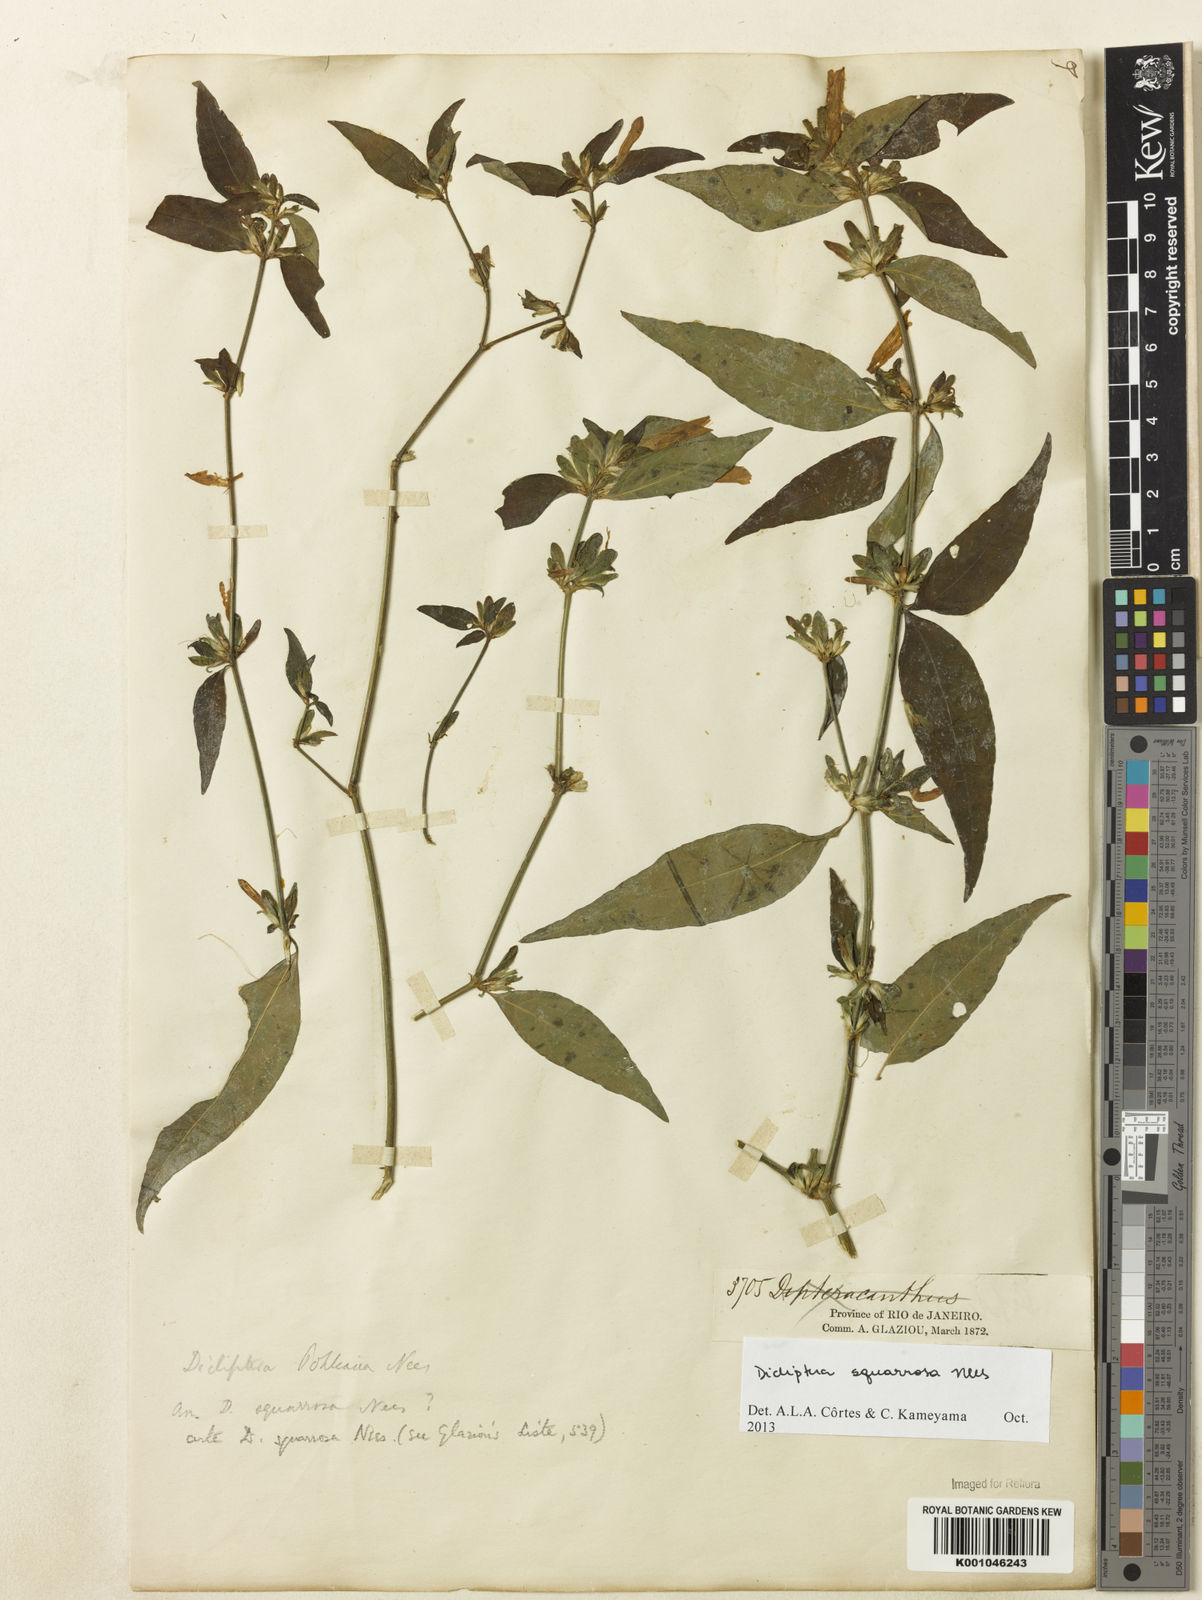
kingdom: Plantae
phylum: Tracheophyta
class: Magnoliopsida
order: Lamiales
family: Acanthaceae
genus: Dicliptera
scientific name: Dicliptera squarrosa
